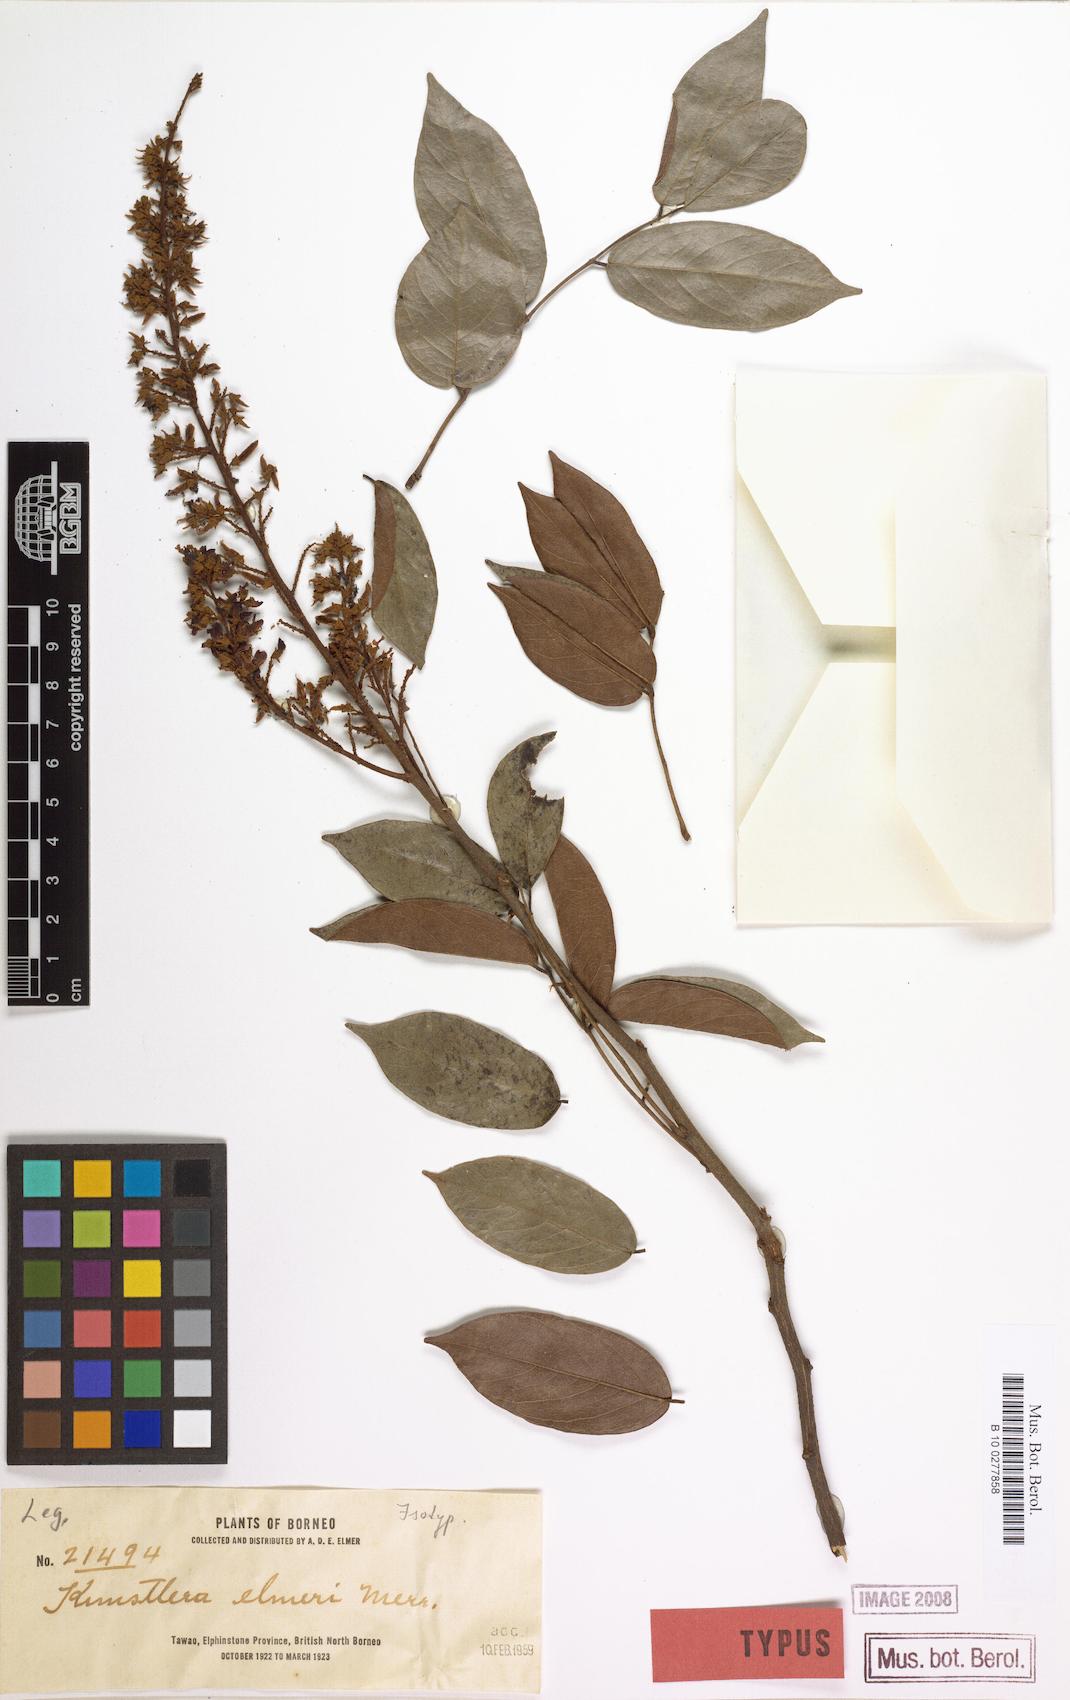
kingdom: Plantae
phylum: Tracheophyta
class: Magnoliopsida
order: Fabales
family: Fabaceae
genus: Kunstleria
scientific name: Kunstleria ridleyi
